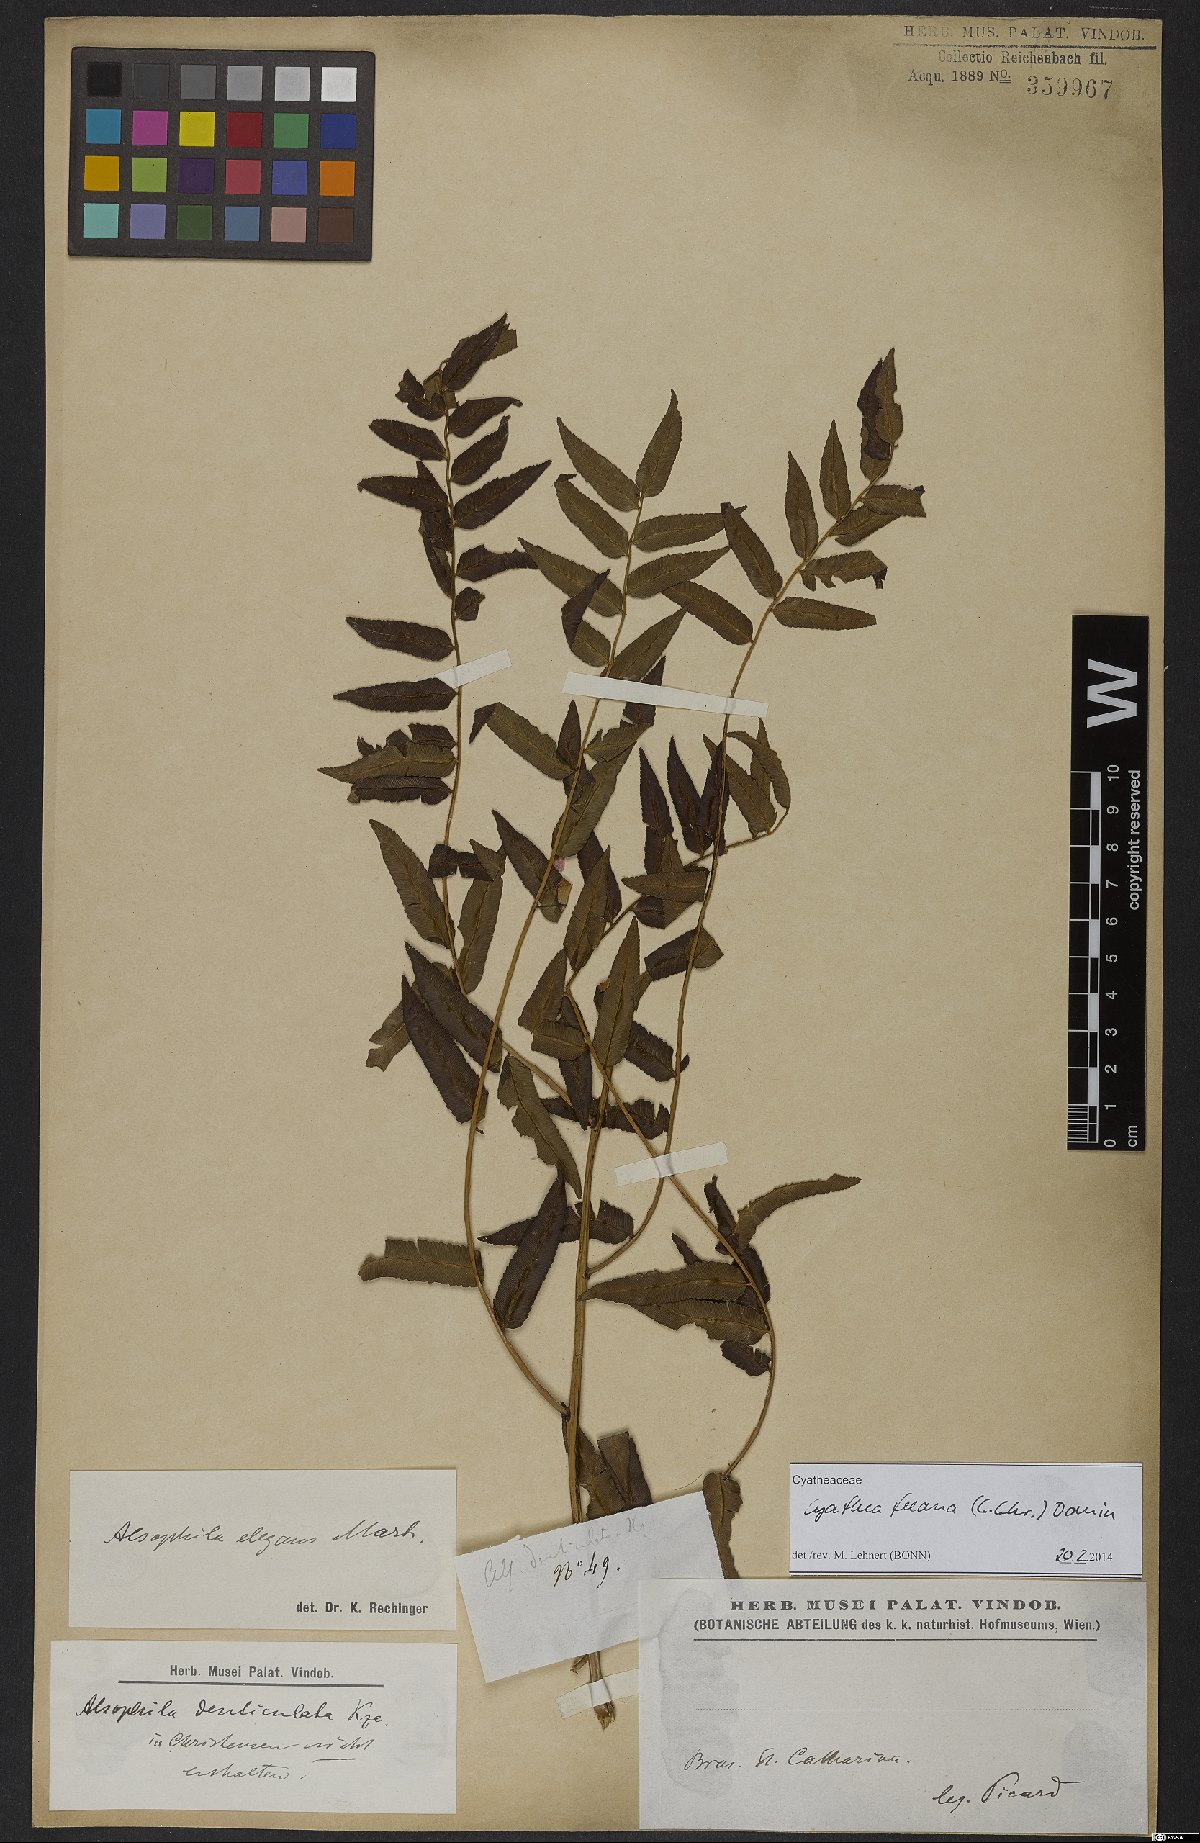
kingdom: Plantae
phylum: Tracheophyta
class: Polypodiopsida
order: Cyatheales
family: Cyatheaceae
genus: Cyathea
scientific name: Cyathea feeana
